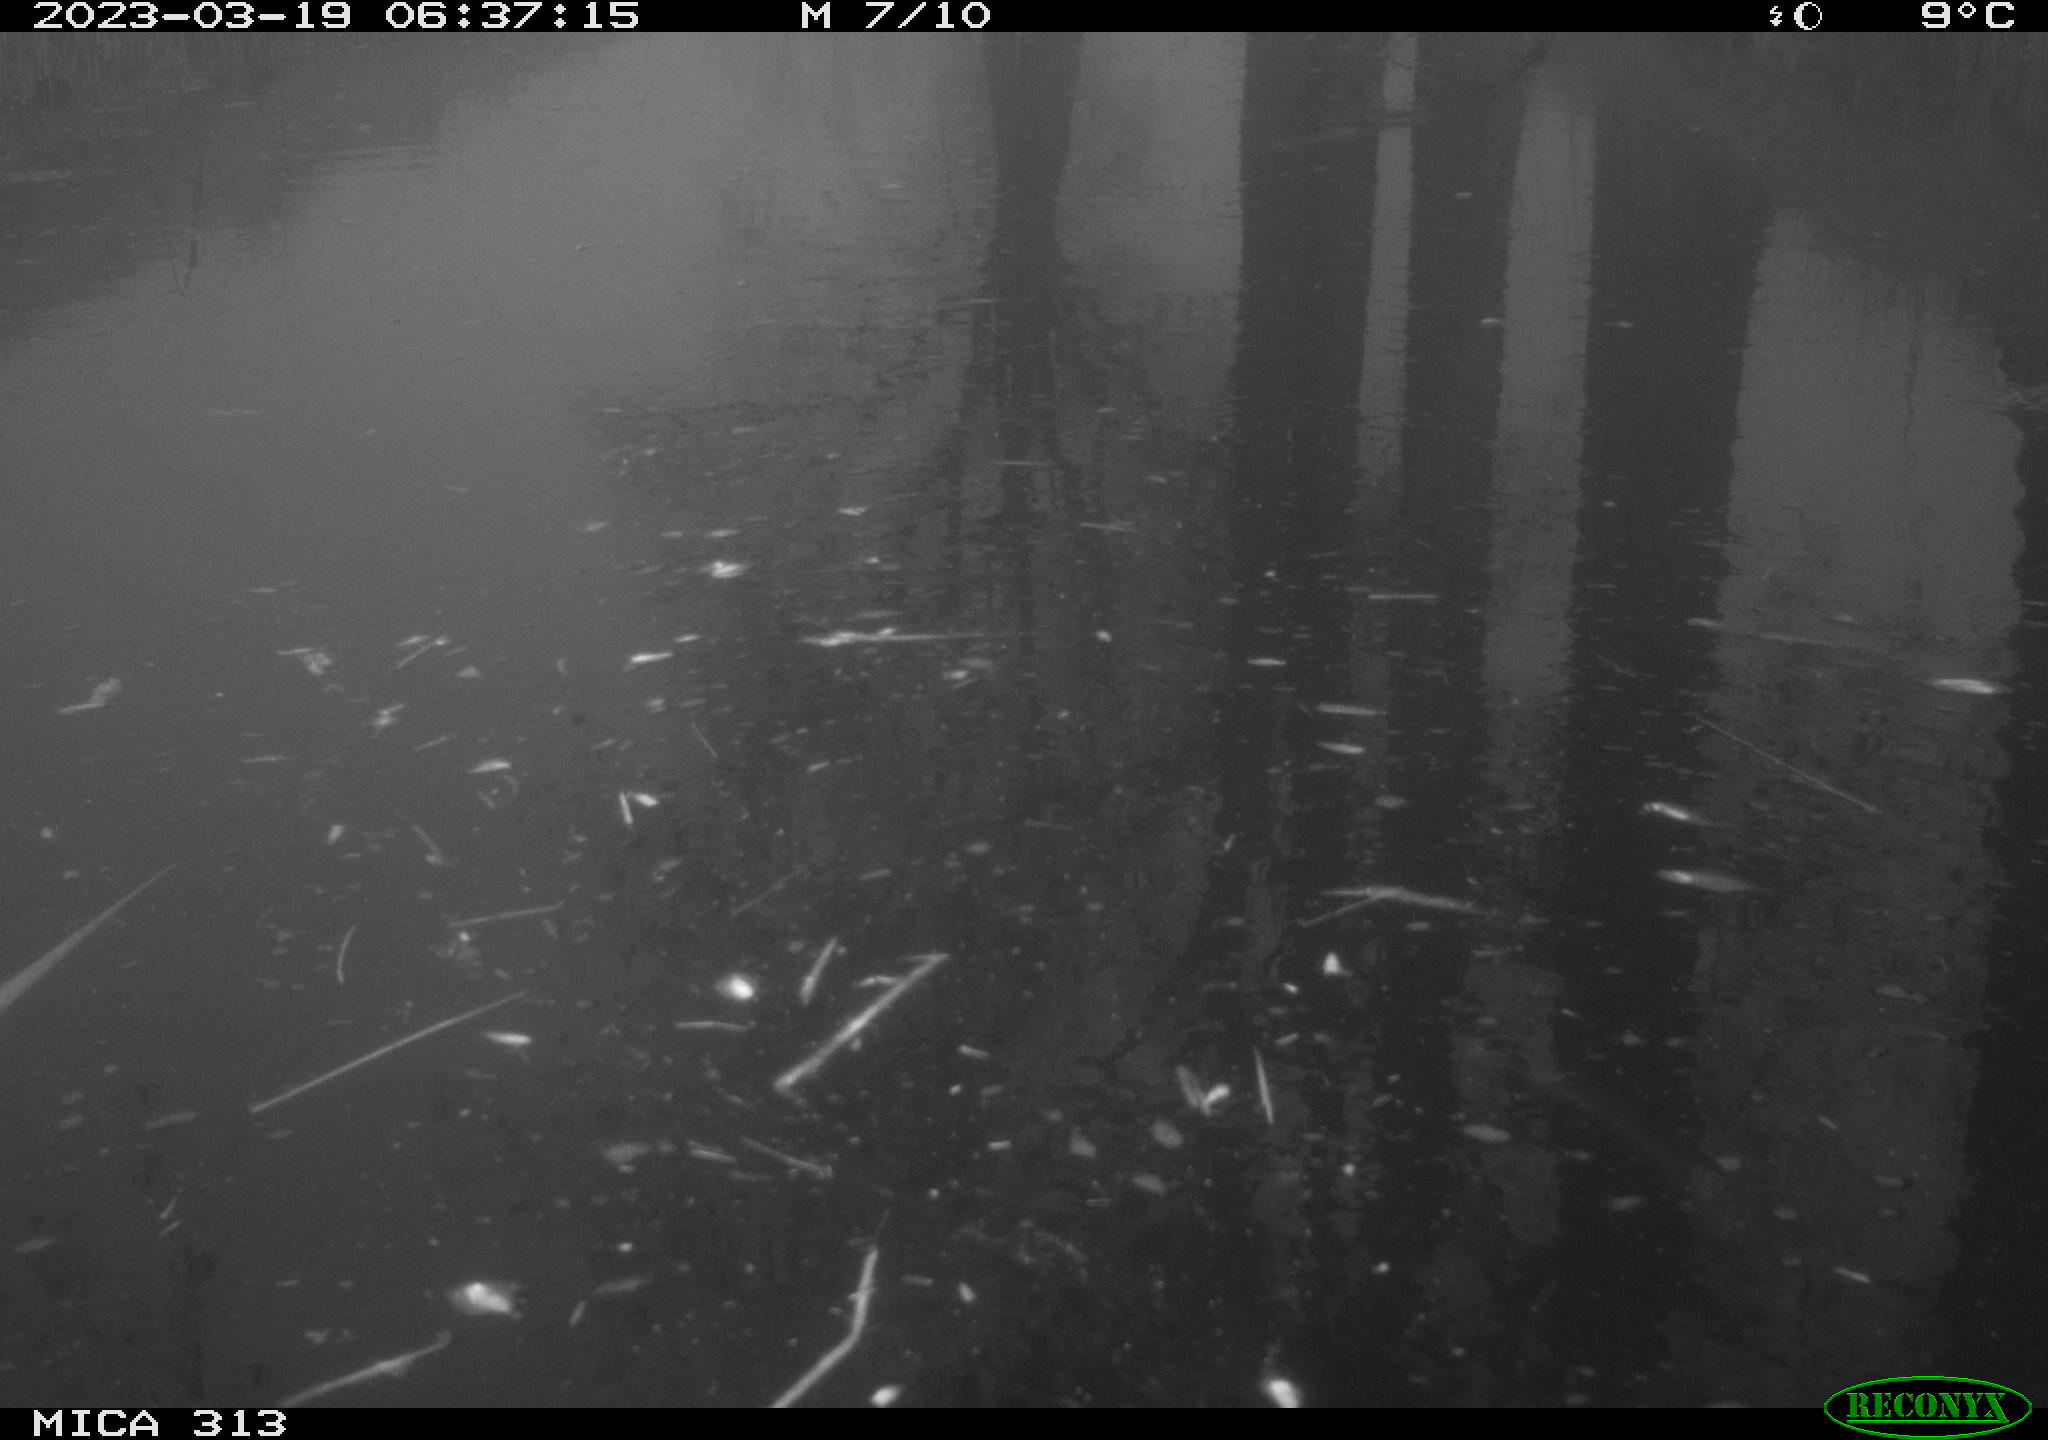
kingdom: Animalia
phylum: Chordata
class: Aves
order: Gruiformes
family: Rallidae
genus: Fulica
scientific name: Fulica atra
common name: Eurasian coot
